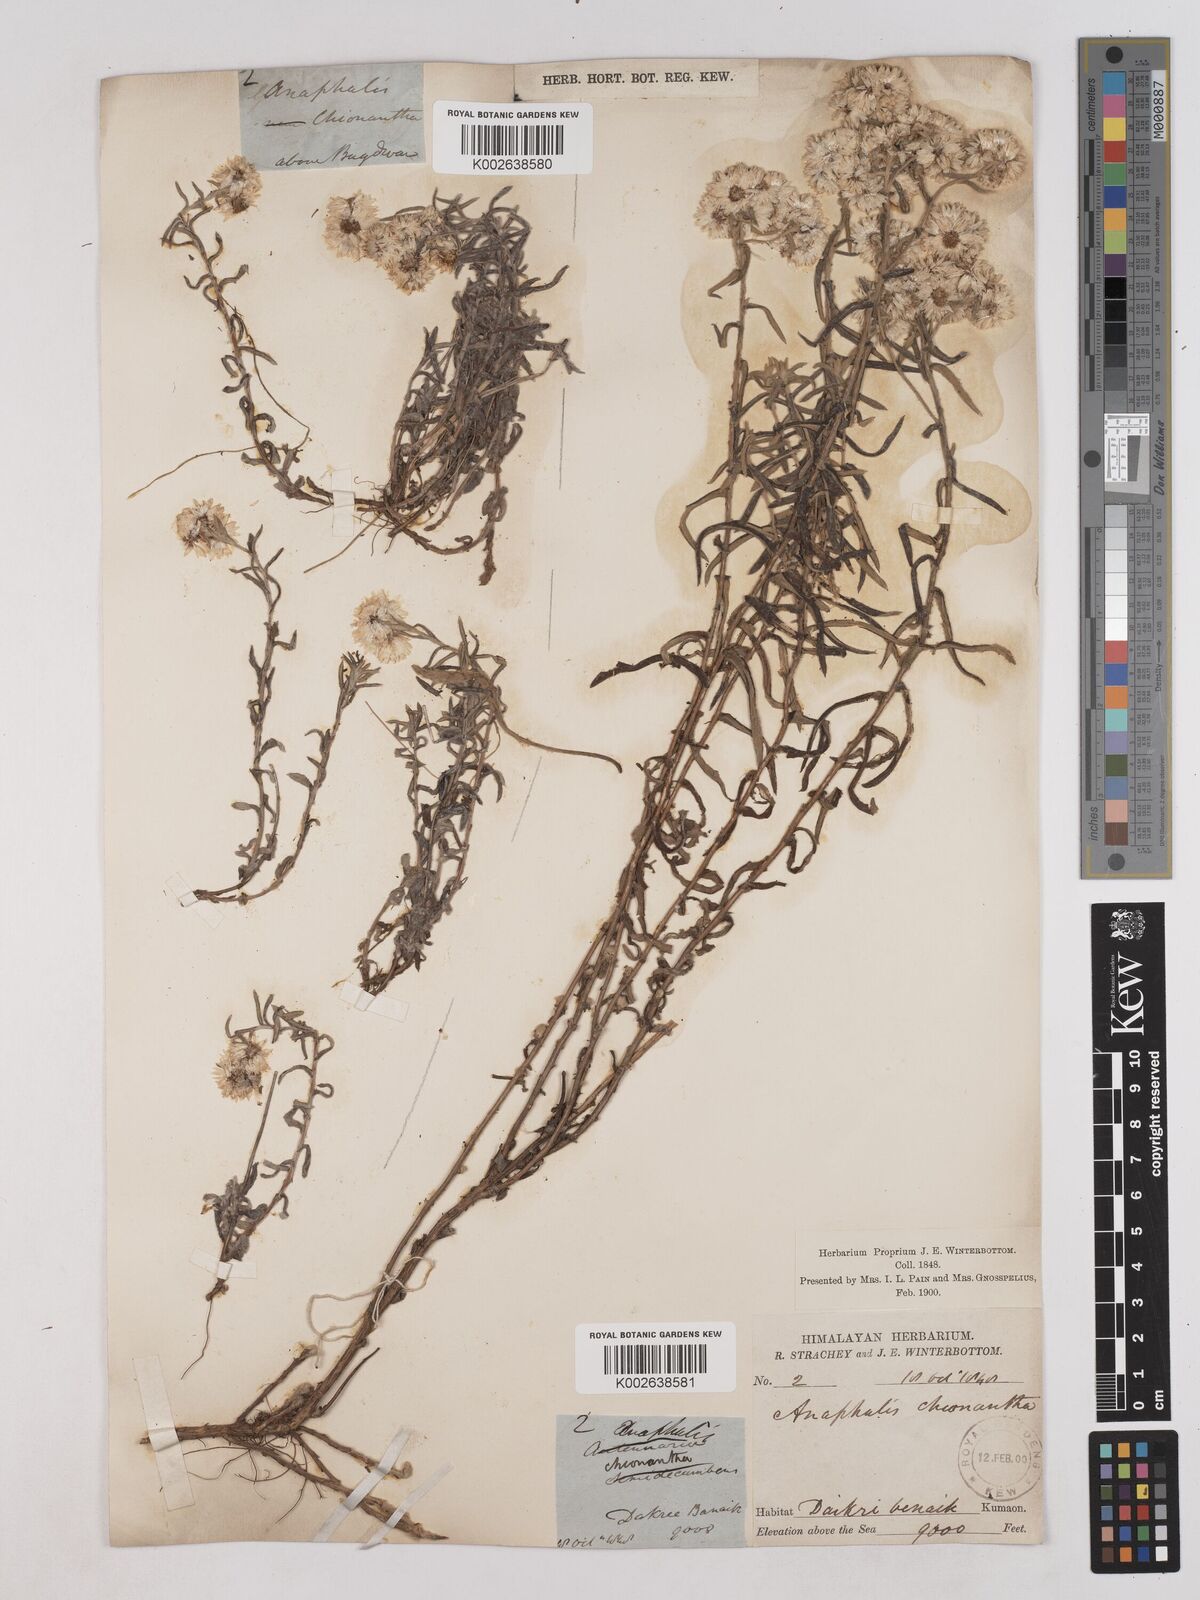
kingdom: Plantae
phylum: Tracheophyta
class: Magnoliopsida
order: Asterales
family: Asteraceae
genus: Anaphalis
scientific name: Anaphalis royleana
